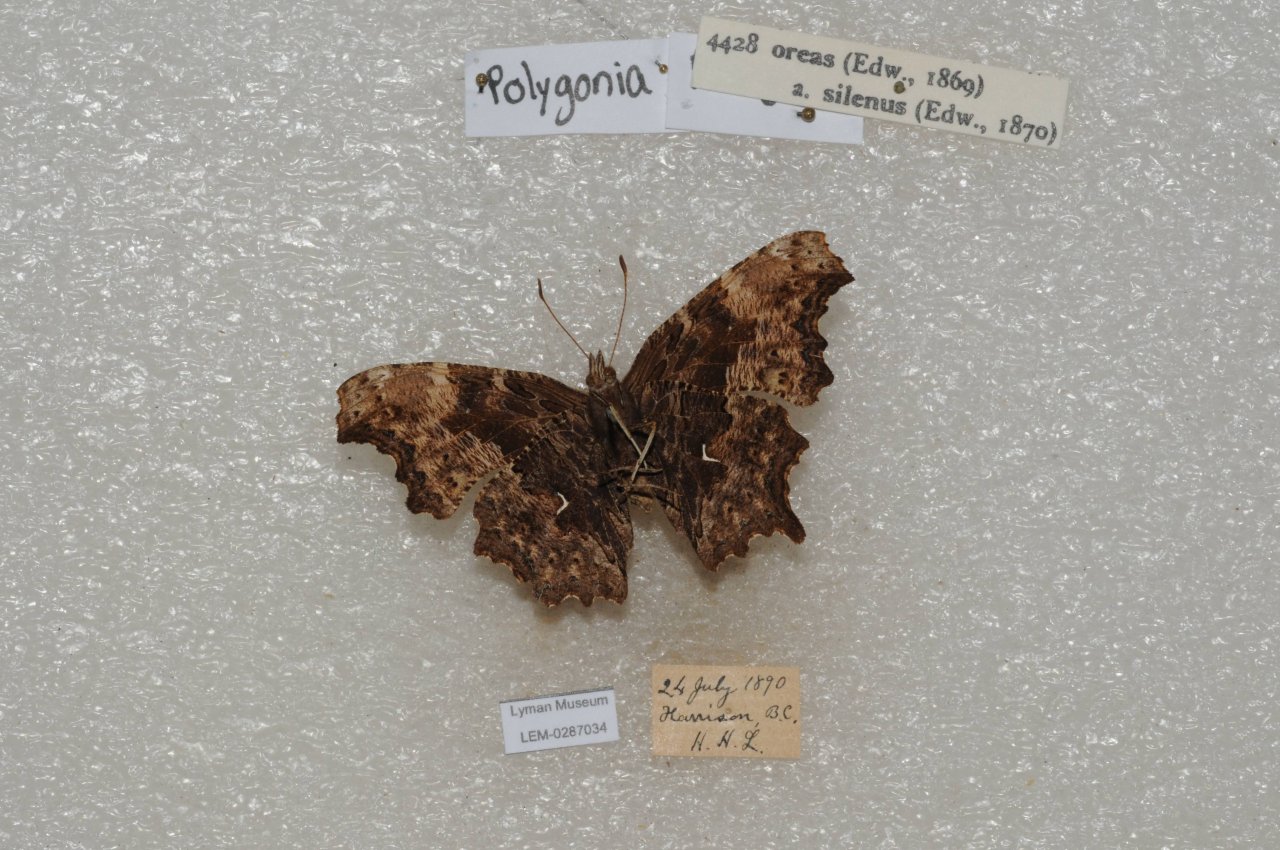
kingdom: Animalia
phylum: Arthropoda
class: Insecta
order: Lepidoptera
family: Nymphalidae
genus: Polygonia
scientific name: Polygonia oreas
